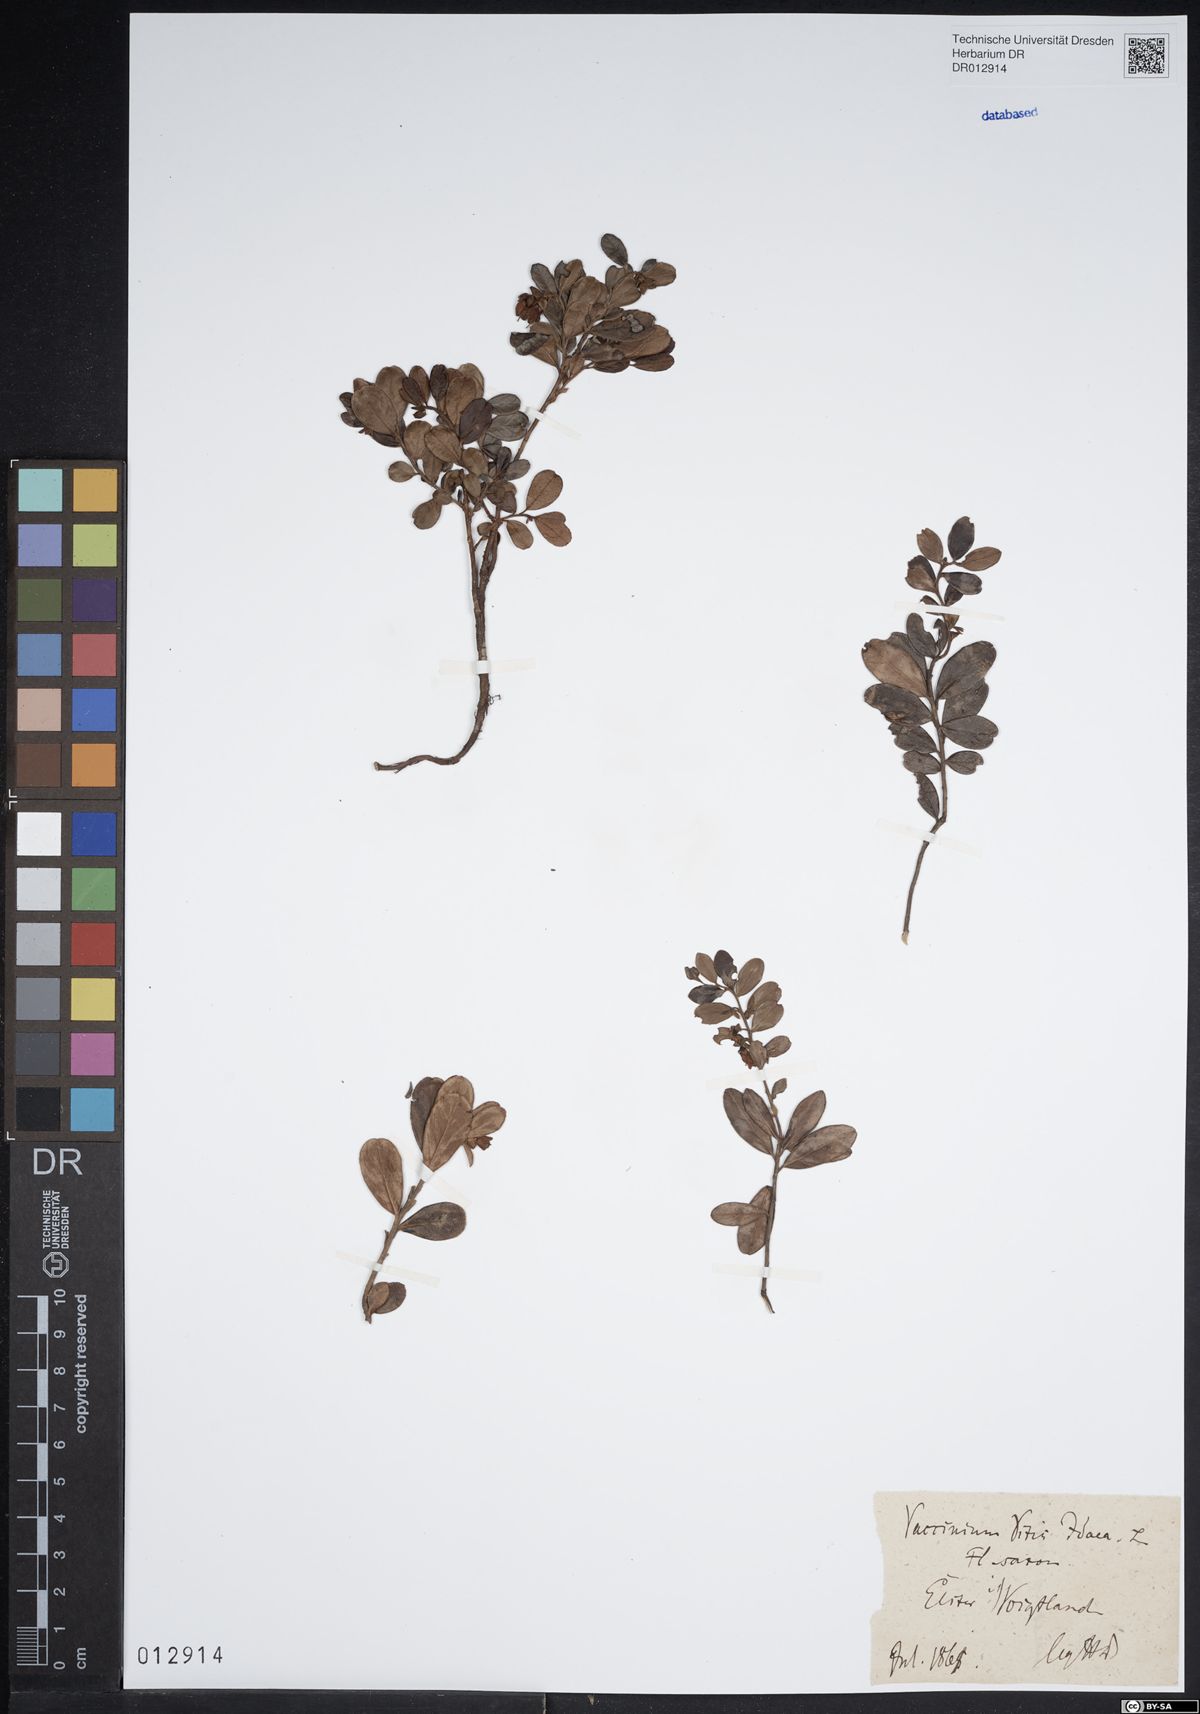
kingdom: Plantae
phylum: Tracheophyta
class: Magnoliopsida
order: Ericales
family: Ericaceae
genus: Vaccinium
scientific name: Vaccinium vitis-idaea
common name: Cowberry
